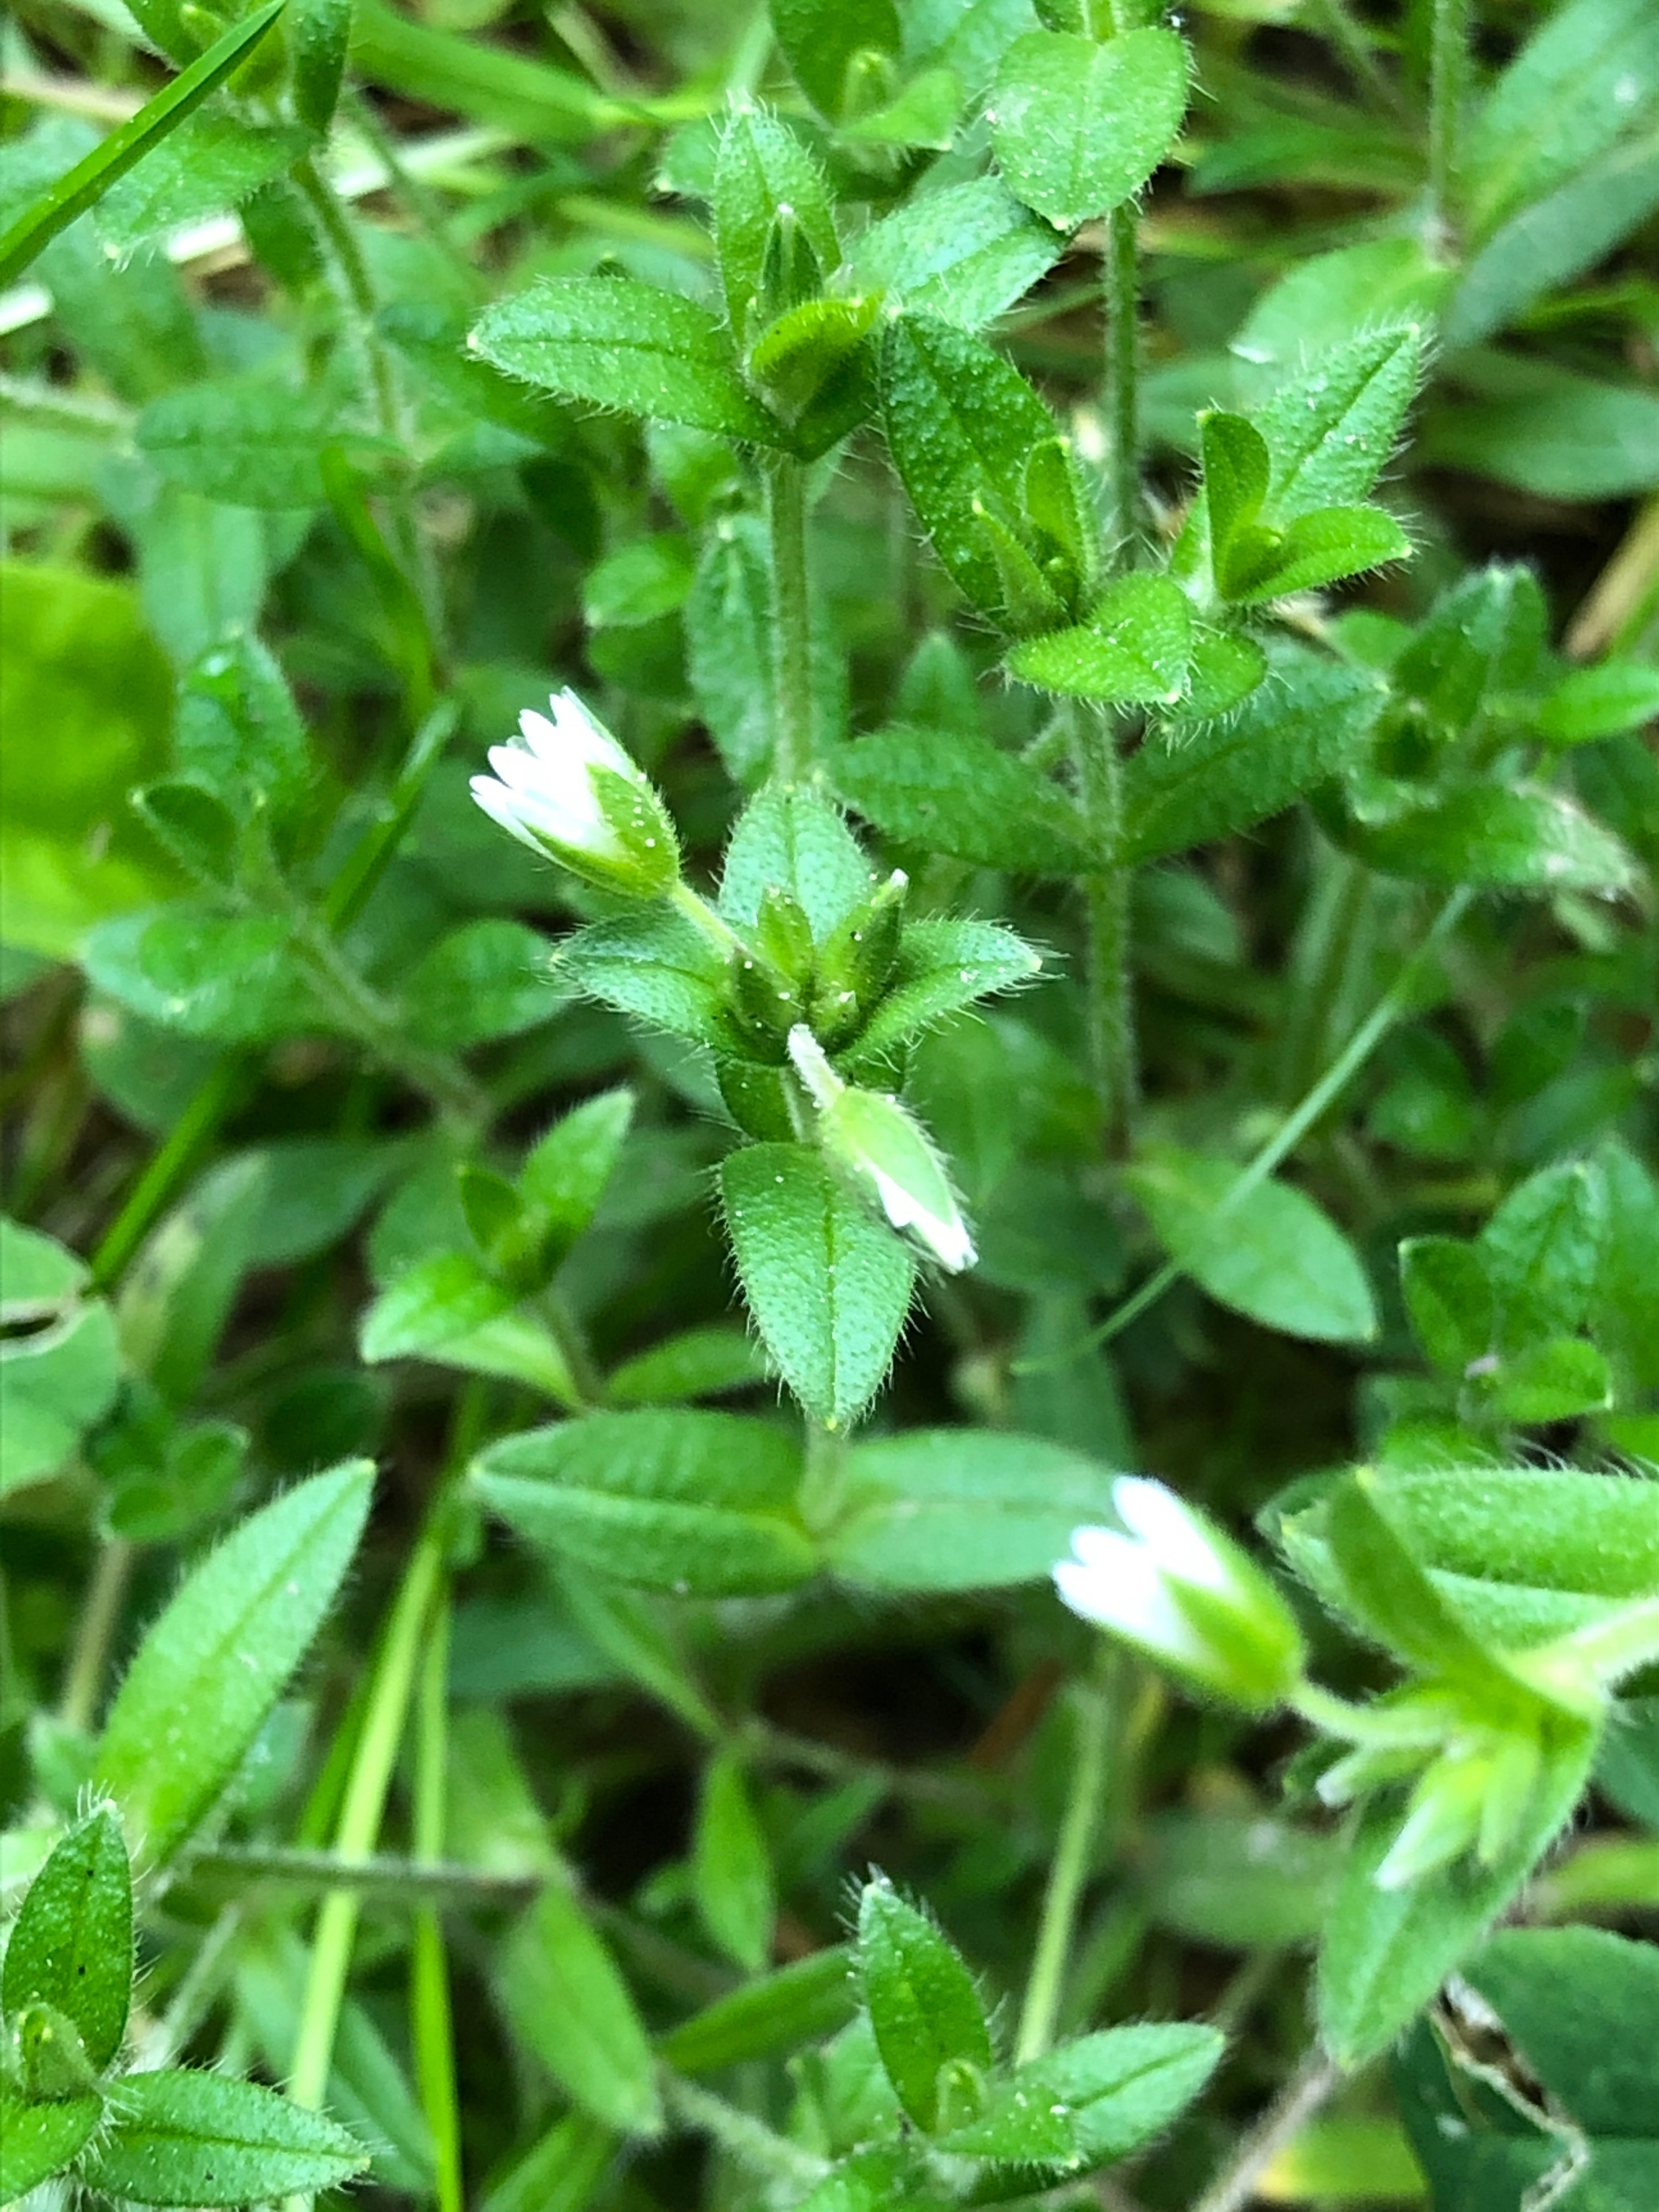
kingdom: Plantae
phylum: Tracheophyta
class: Magnoliopsida
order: Caryophyllales
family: Caryophyllaceae
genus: Cerastium
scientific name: Cerastium fontanum
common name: Almindelig hønsetarm
